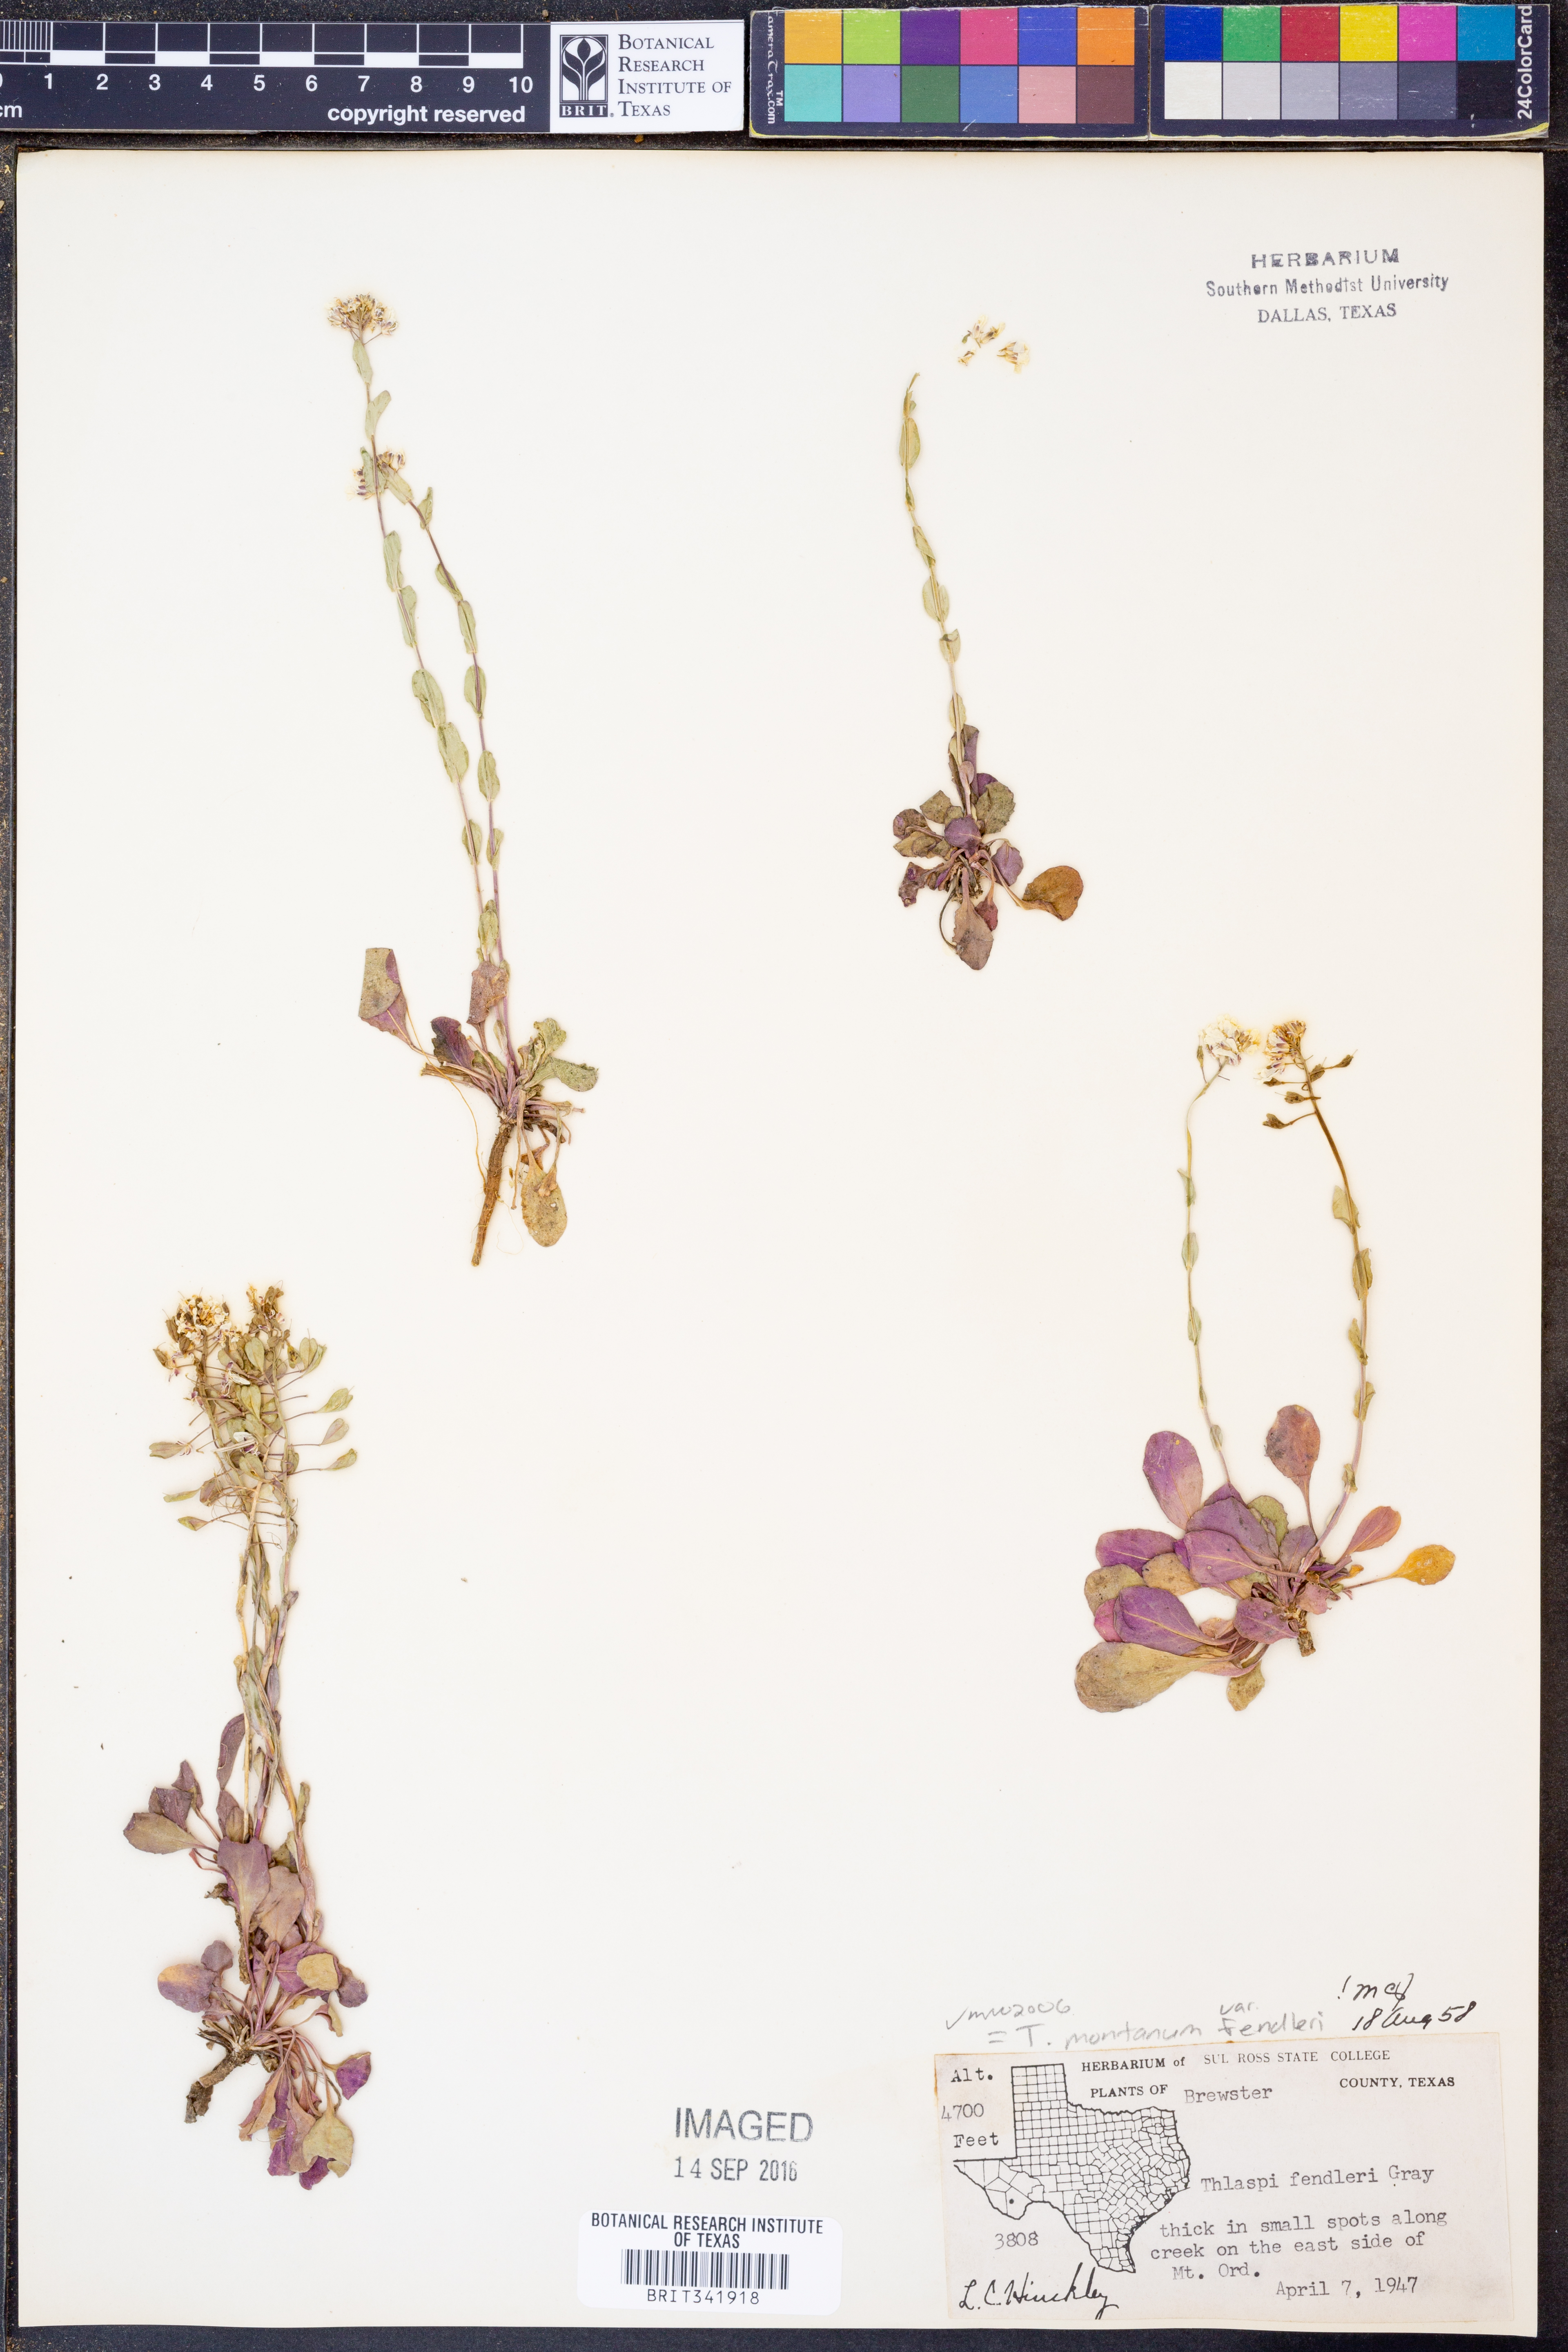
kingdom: Plantae
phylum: Tracheophyta
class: Magnoliopsida
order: Brassicales
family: Brassicaceae
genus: Noccaea
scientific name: Noccaea fendleri
